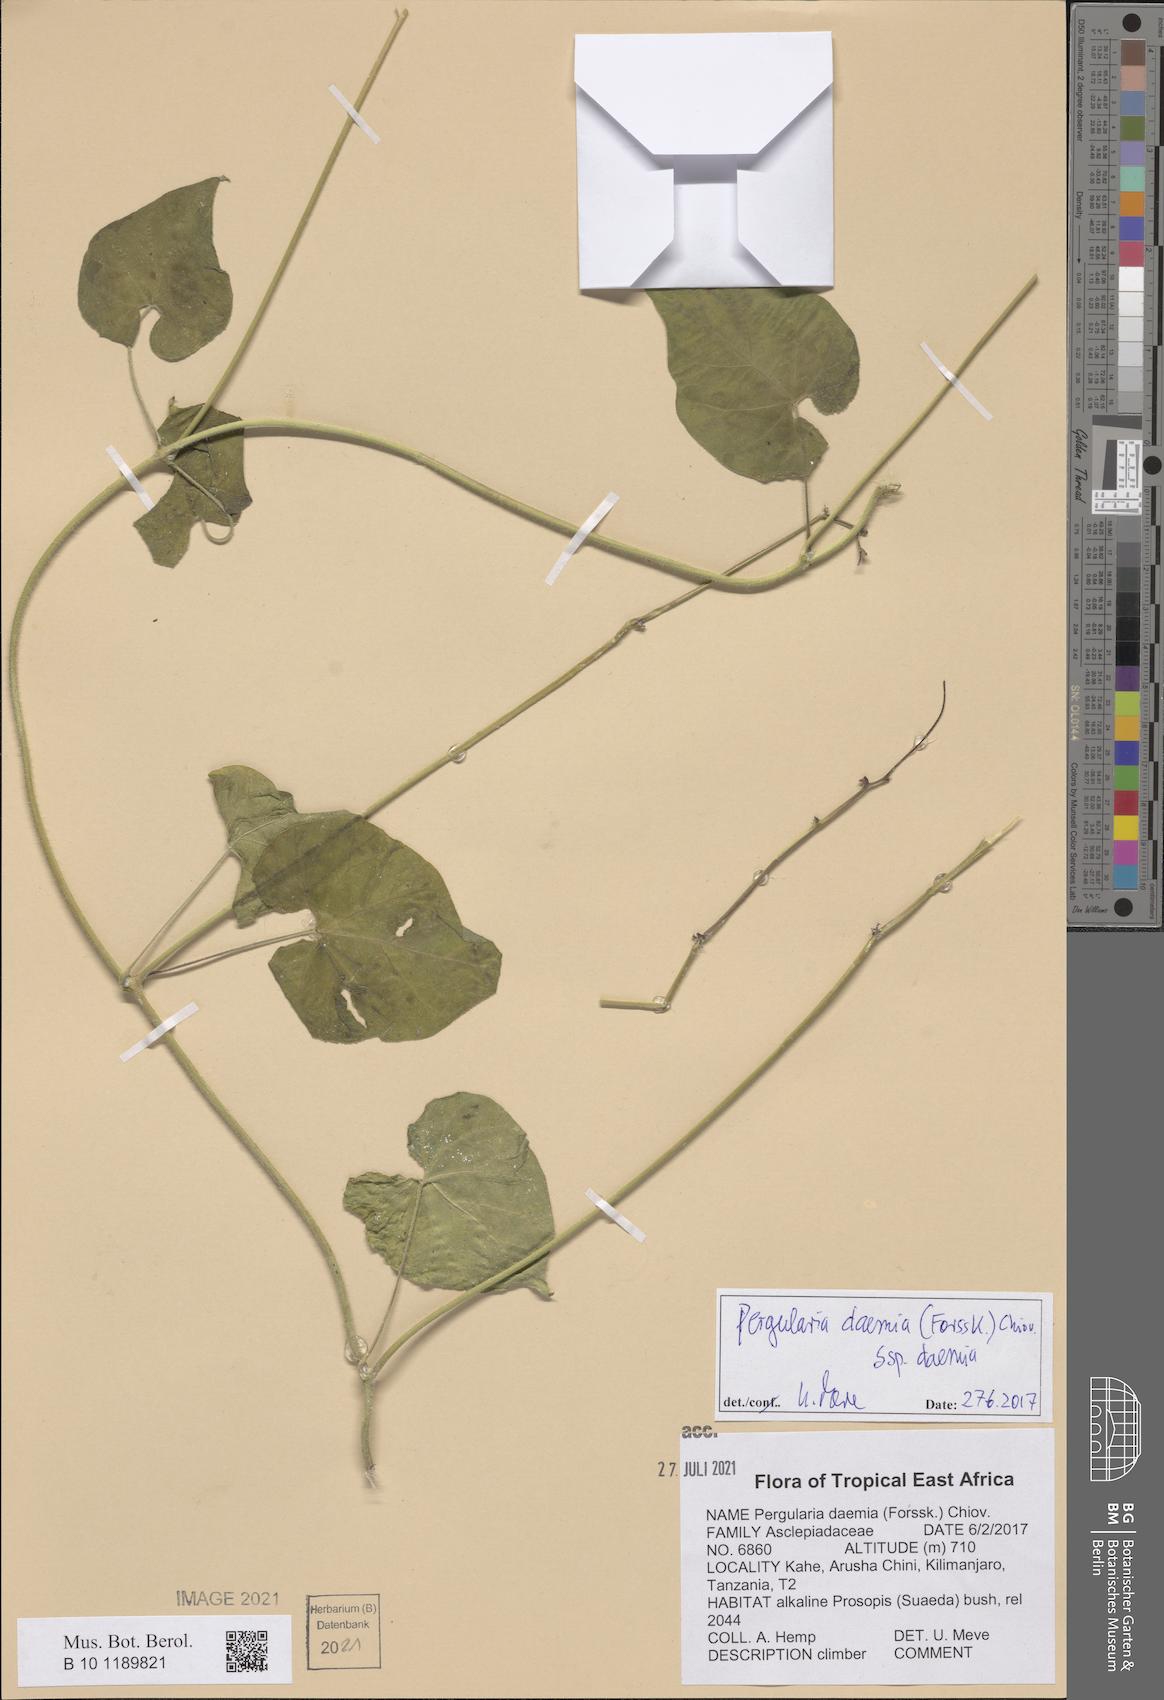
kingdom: Plantae
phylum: Tracheophyta
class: Magnoliopsida
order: Gentianales
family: Apocynaceae
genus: Pergularia
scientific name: Pergularia daemia
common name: Trellis-vine
